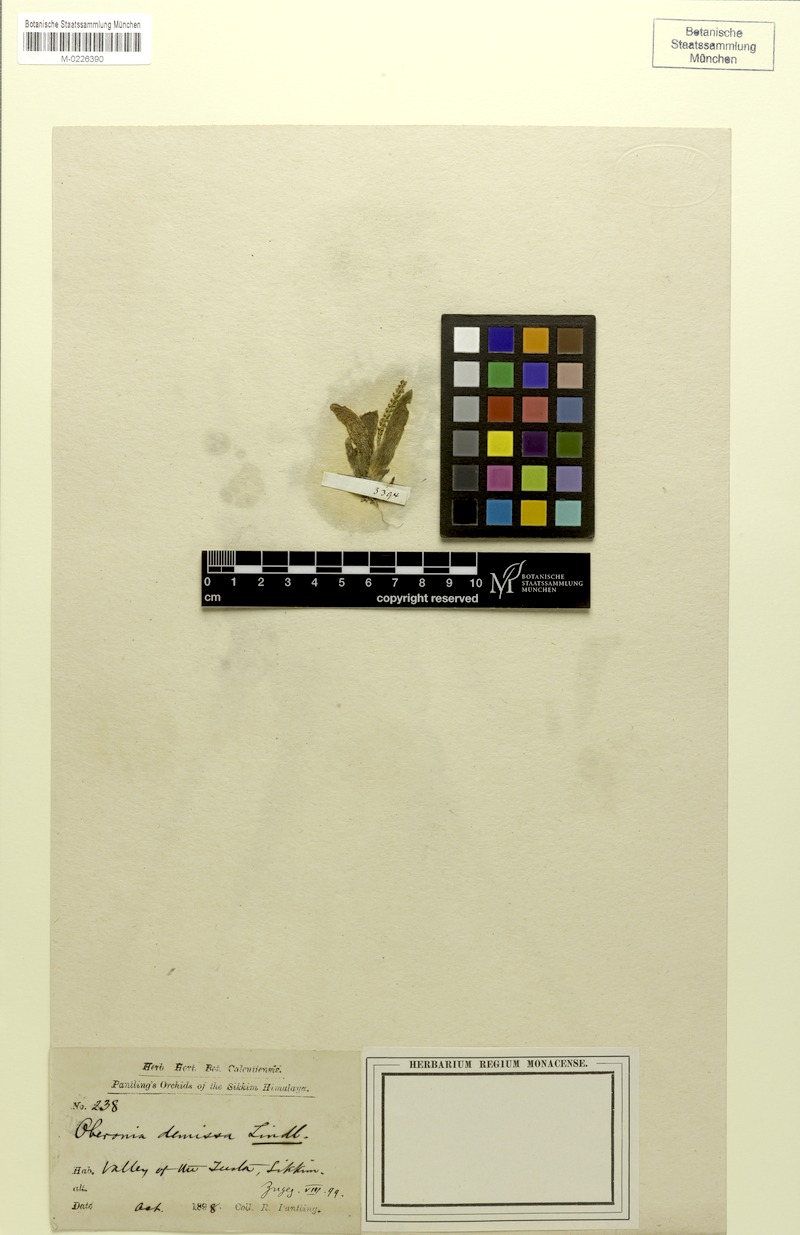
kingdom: Plantae
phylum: Tracheophyta
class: Liliopsida
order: Asparagales
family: Orchidaceae
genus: Oberonia
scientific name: Oberonia brachystachys
